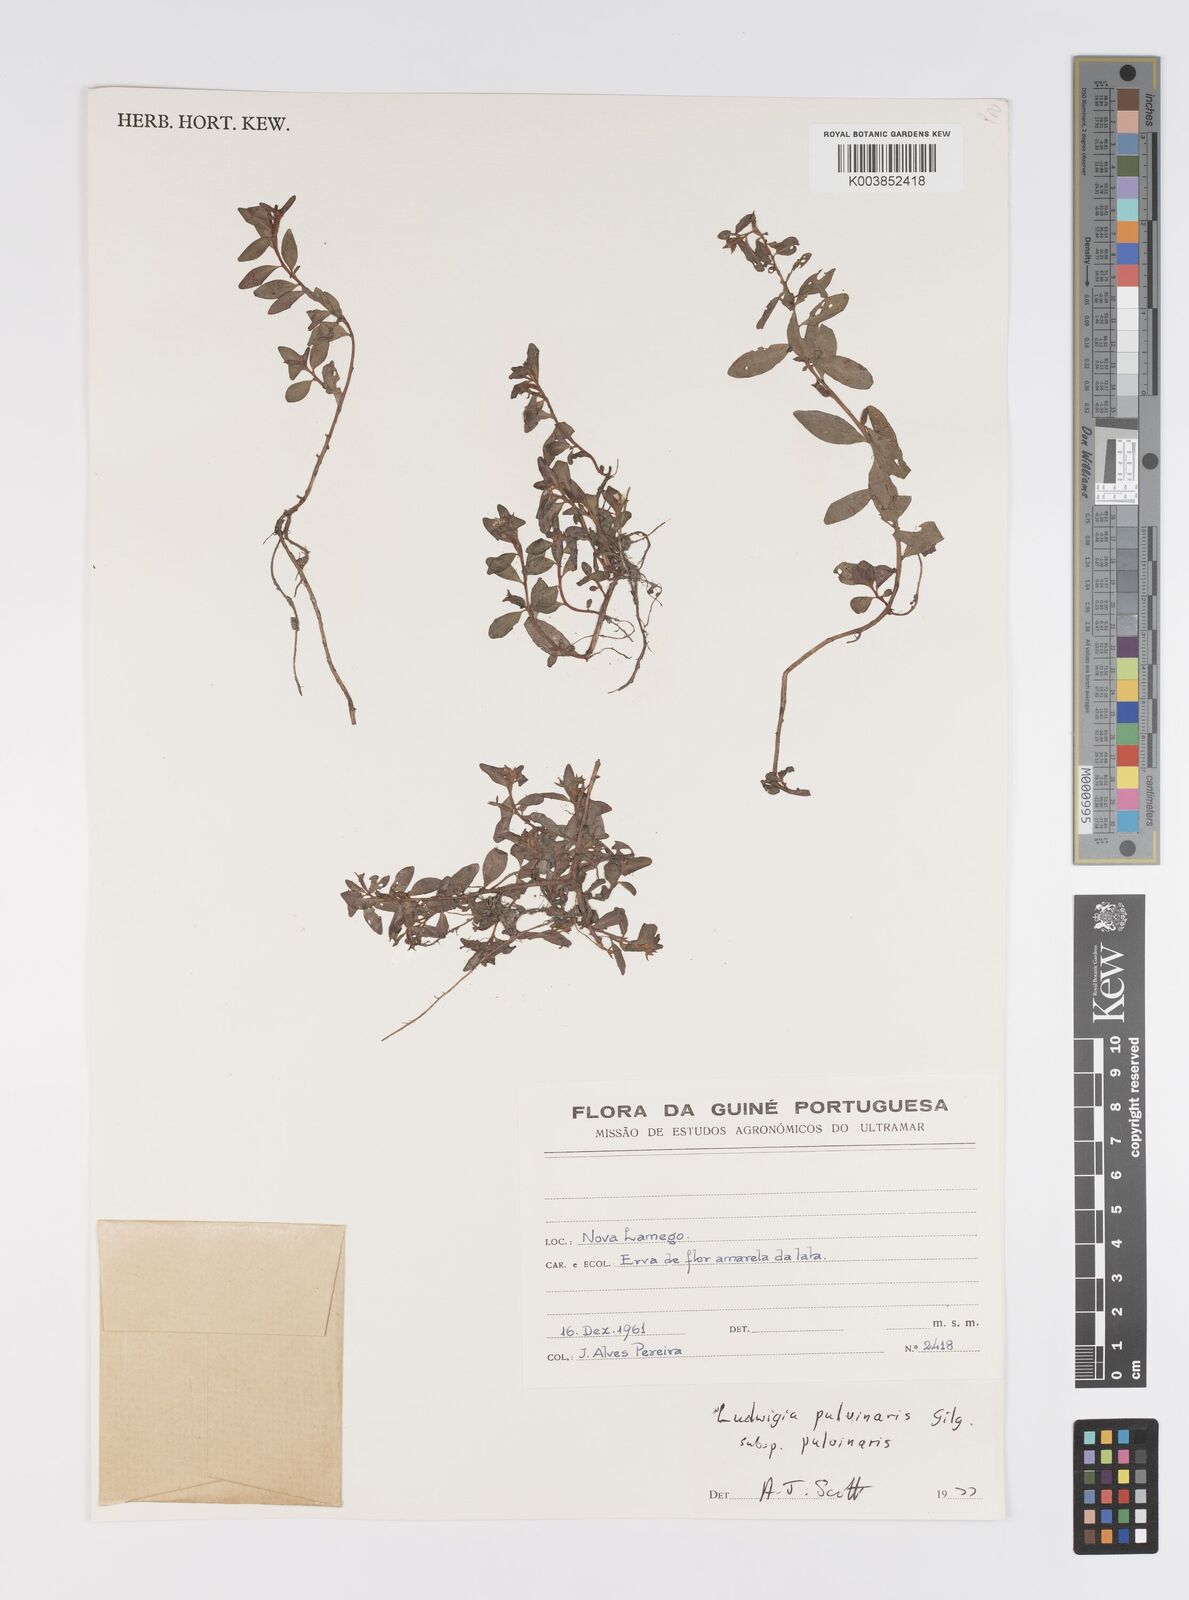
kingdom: Plantae
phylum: Tracheophyta
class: Magnoliopsida
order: Myrtales
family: Onagraceae
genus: Ludwigia
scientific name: Ludwigia senegalensis
